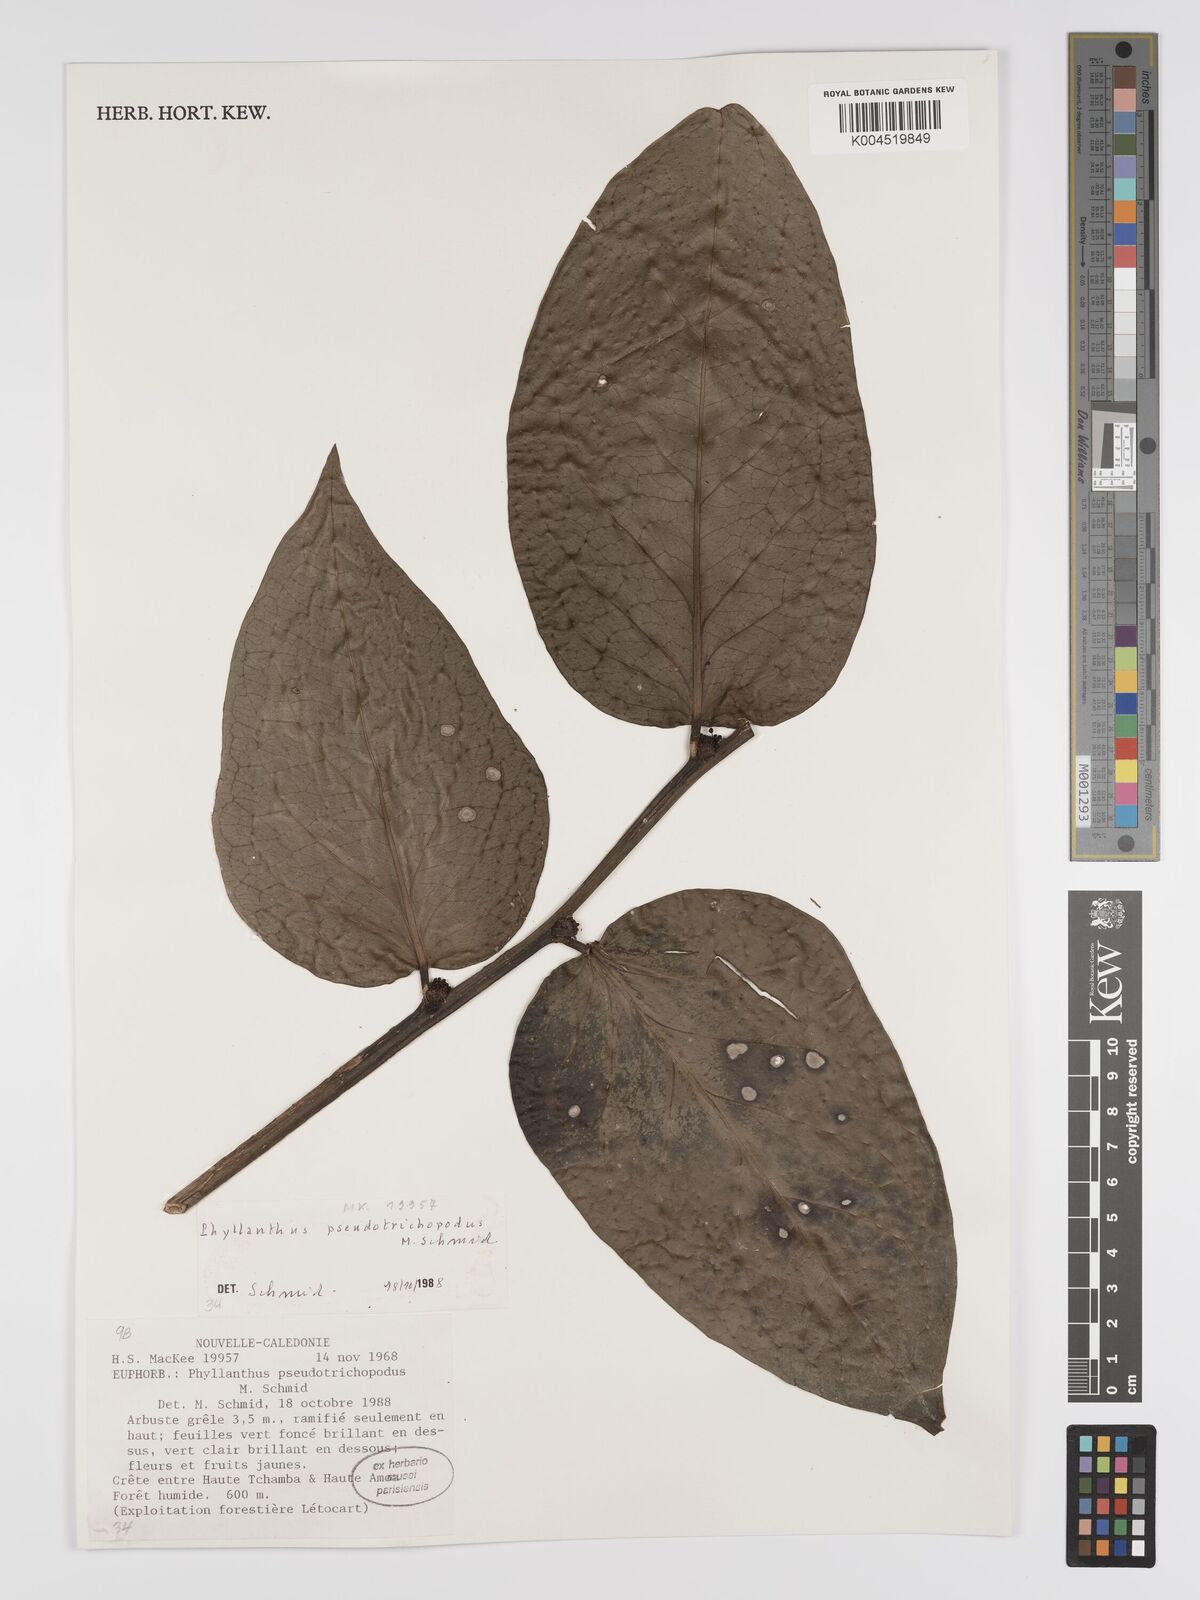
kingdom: Plantae
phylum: Tracheophyta
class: Magnoliopsida
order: Malpighiales
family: Phyllanthaceae
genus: Phyllanthus
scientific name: Phyllanthus pseudotrichopodus
